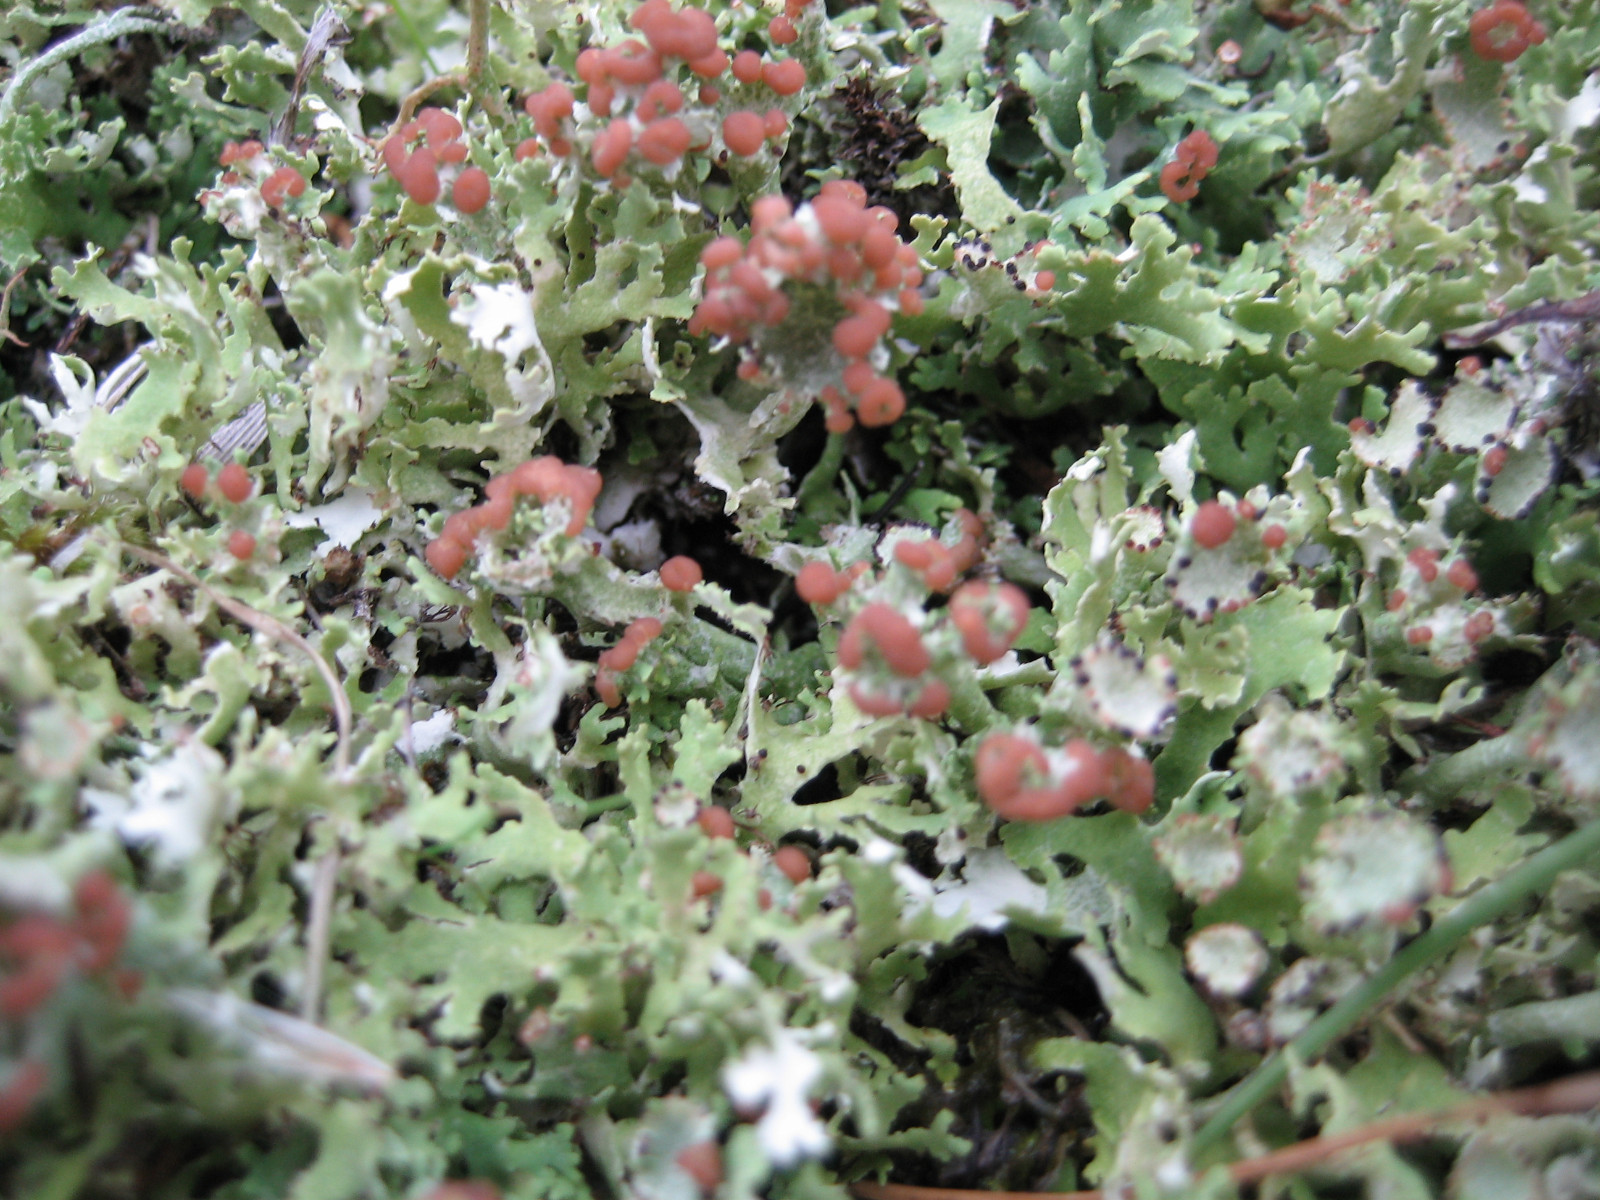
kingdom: Fungi
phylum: Ascomycota
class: Lecanoromycetes
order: Lecanorales
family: Cladoniaceae
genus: Cladonia
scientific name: Cladonia foliacea
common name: fliget bægerlav
